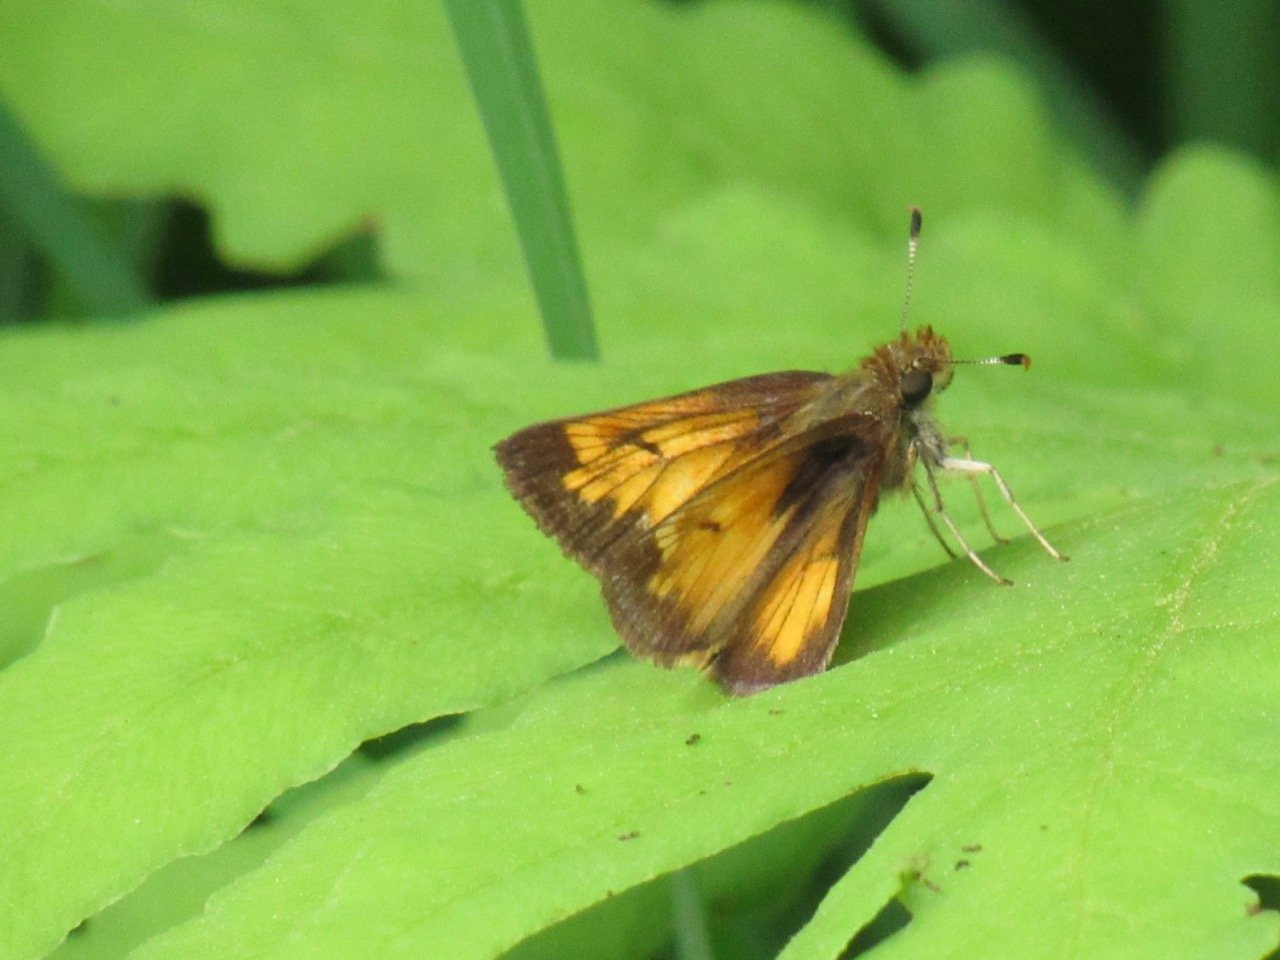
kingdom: Animalia
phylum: Arthropoda
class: Insecta
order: Lepidoptera
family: Hesperiidae
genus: Lon
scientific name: Lon hobomok
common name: Hobomok Skipper
